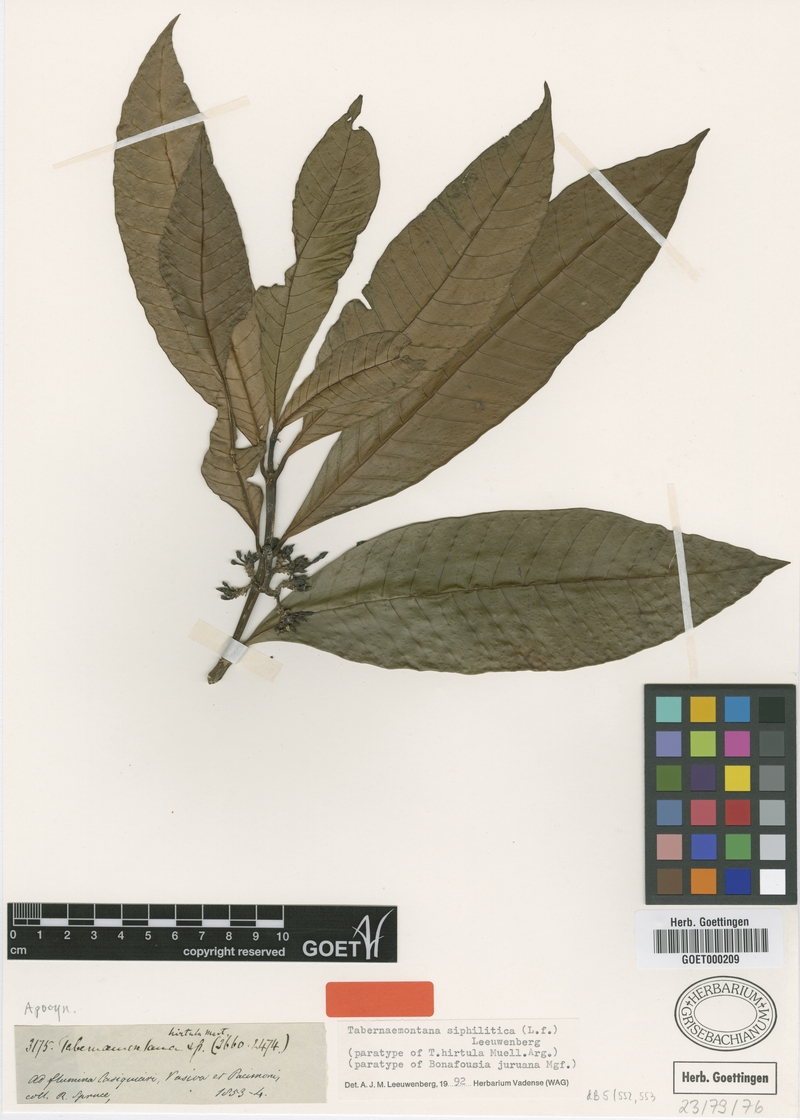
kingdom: Plantae
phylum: Tracheophyta
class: Magnoliopsida
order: Gentianales
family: Apocynaceae
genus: Tabernaemontana
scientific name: Tabernaemontana siphilitica
